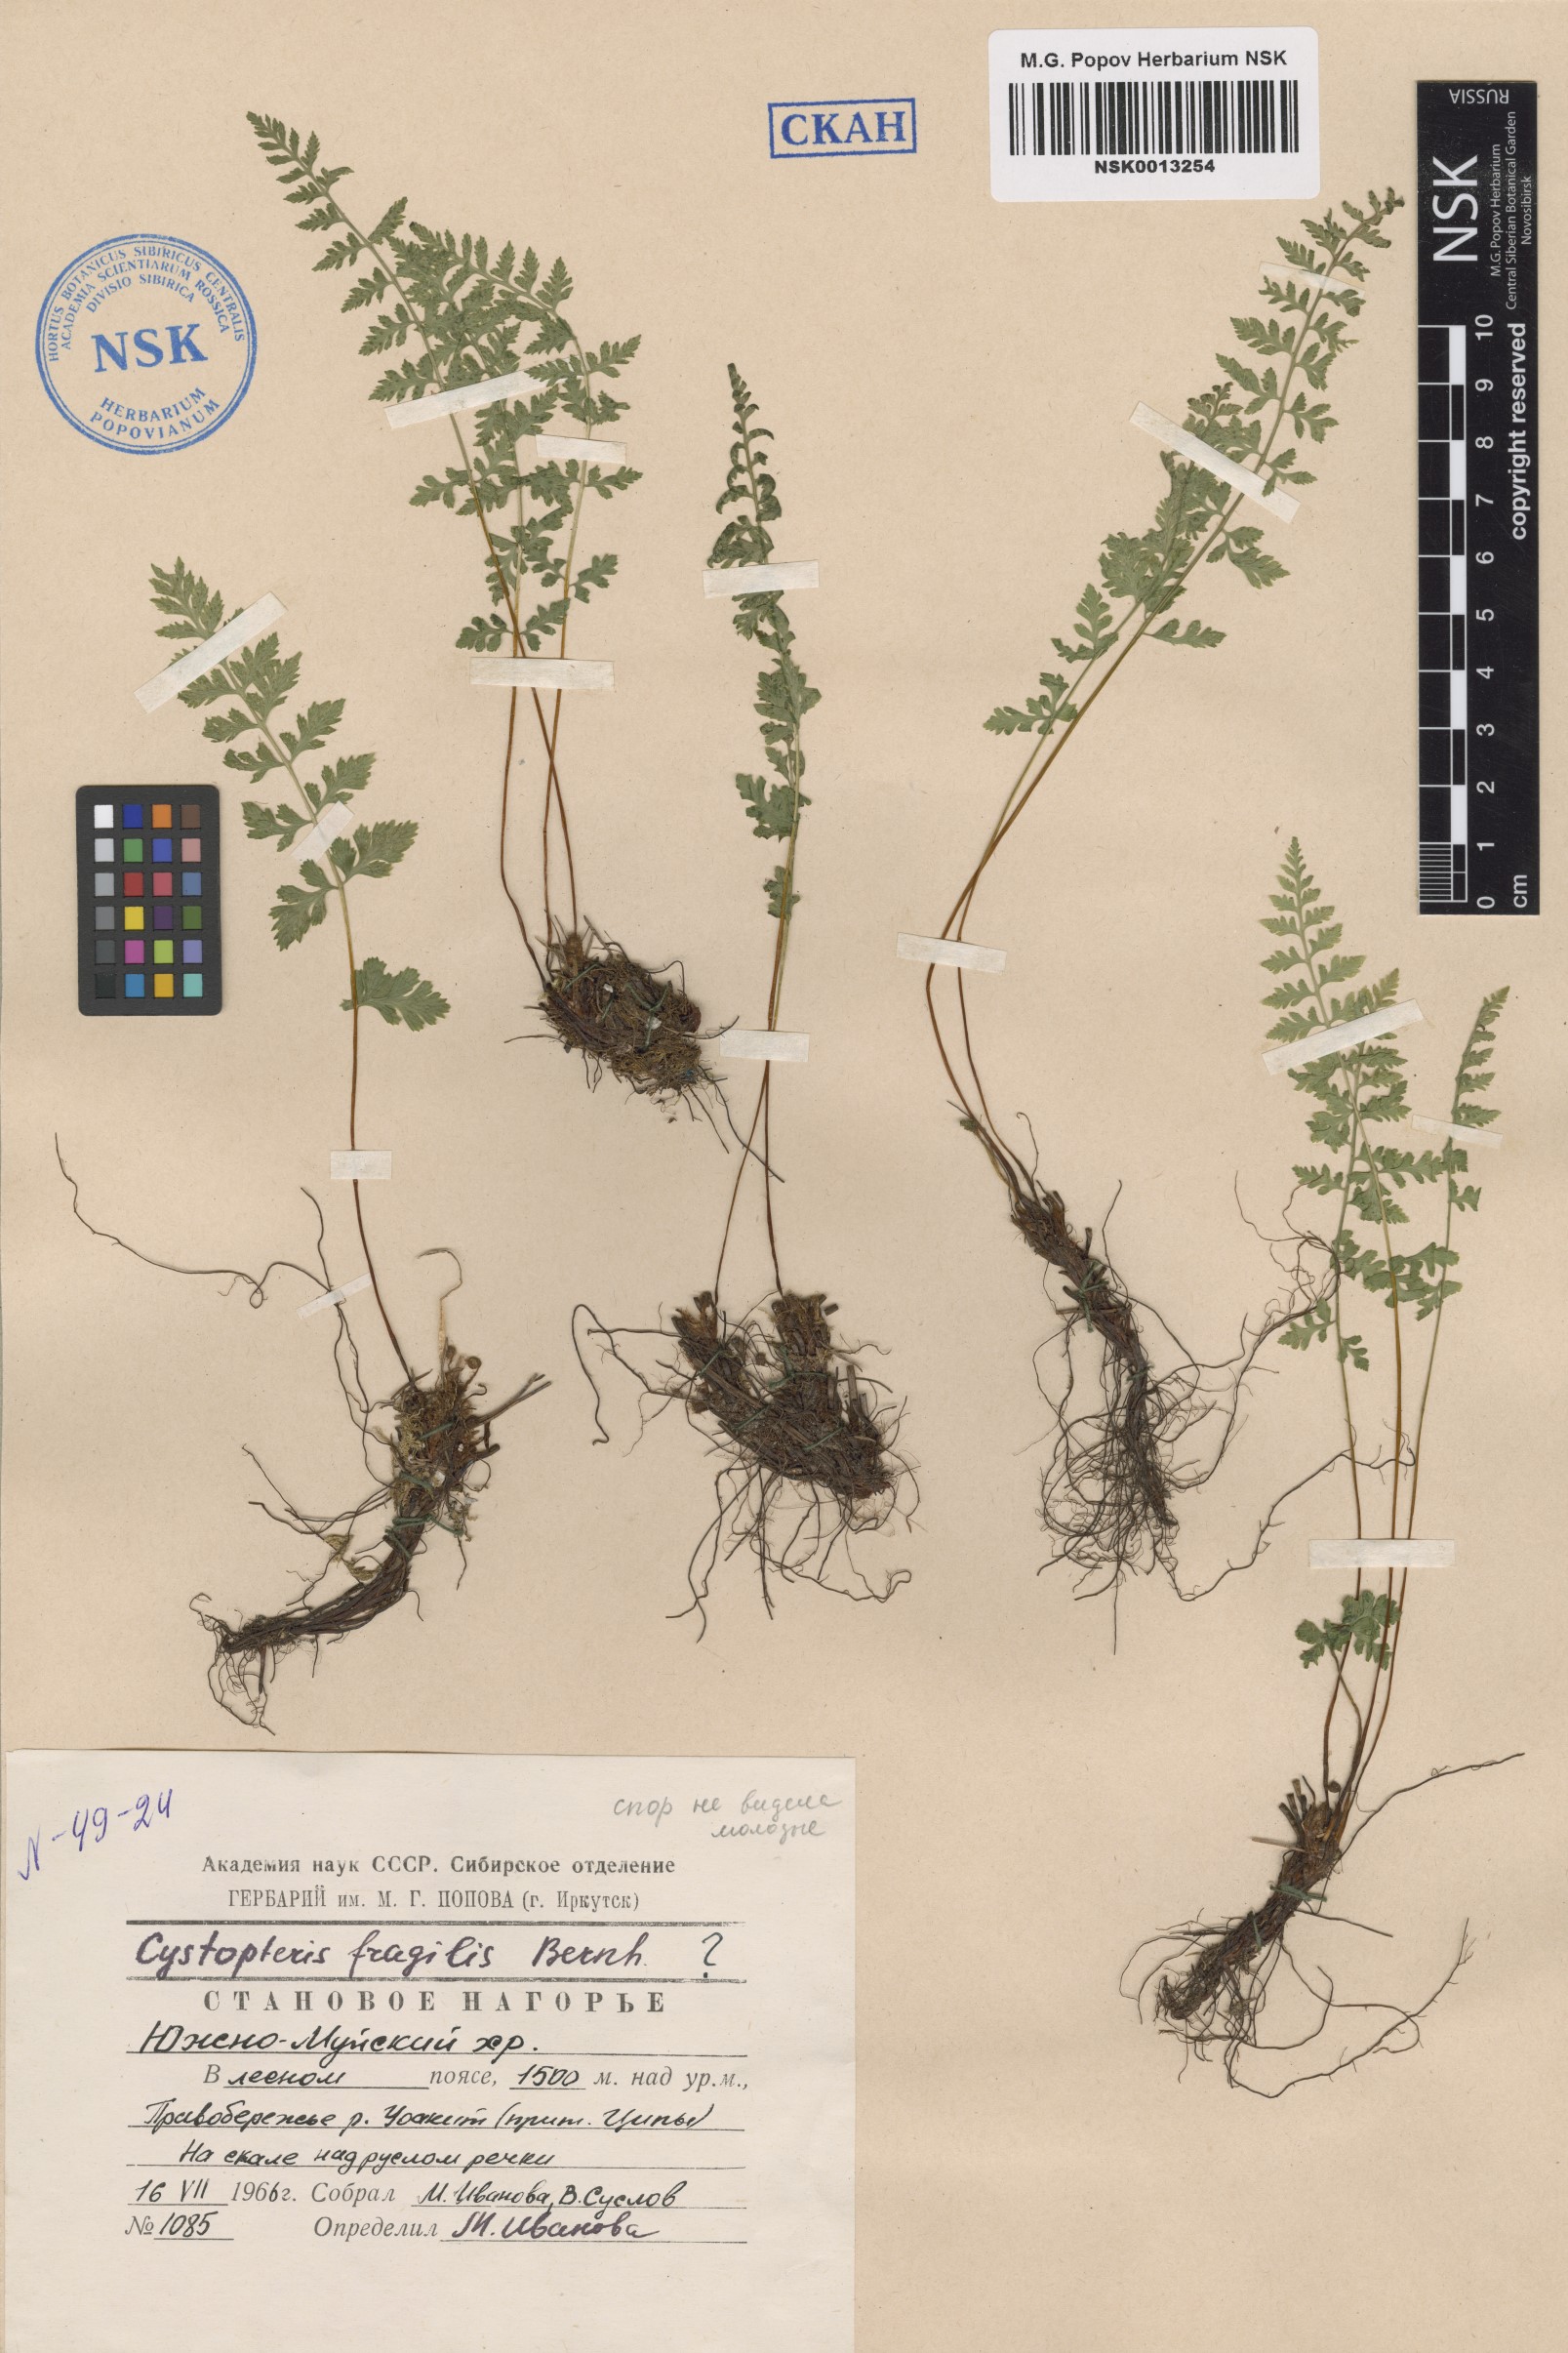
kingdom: Plantae
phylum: Tracheophyta
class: Polypodiopsida
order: Polypodiales
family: Cystopteridaceae
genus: Cystopteris
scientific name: Cystopteris fragilis
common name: Brittle bladder fern
